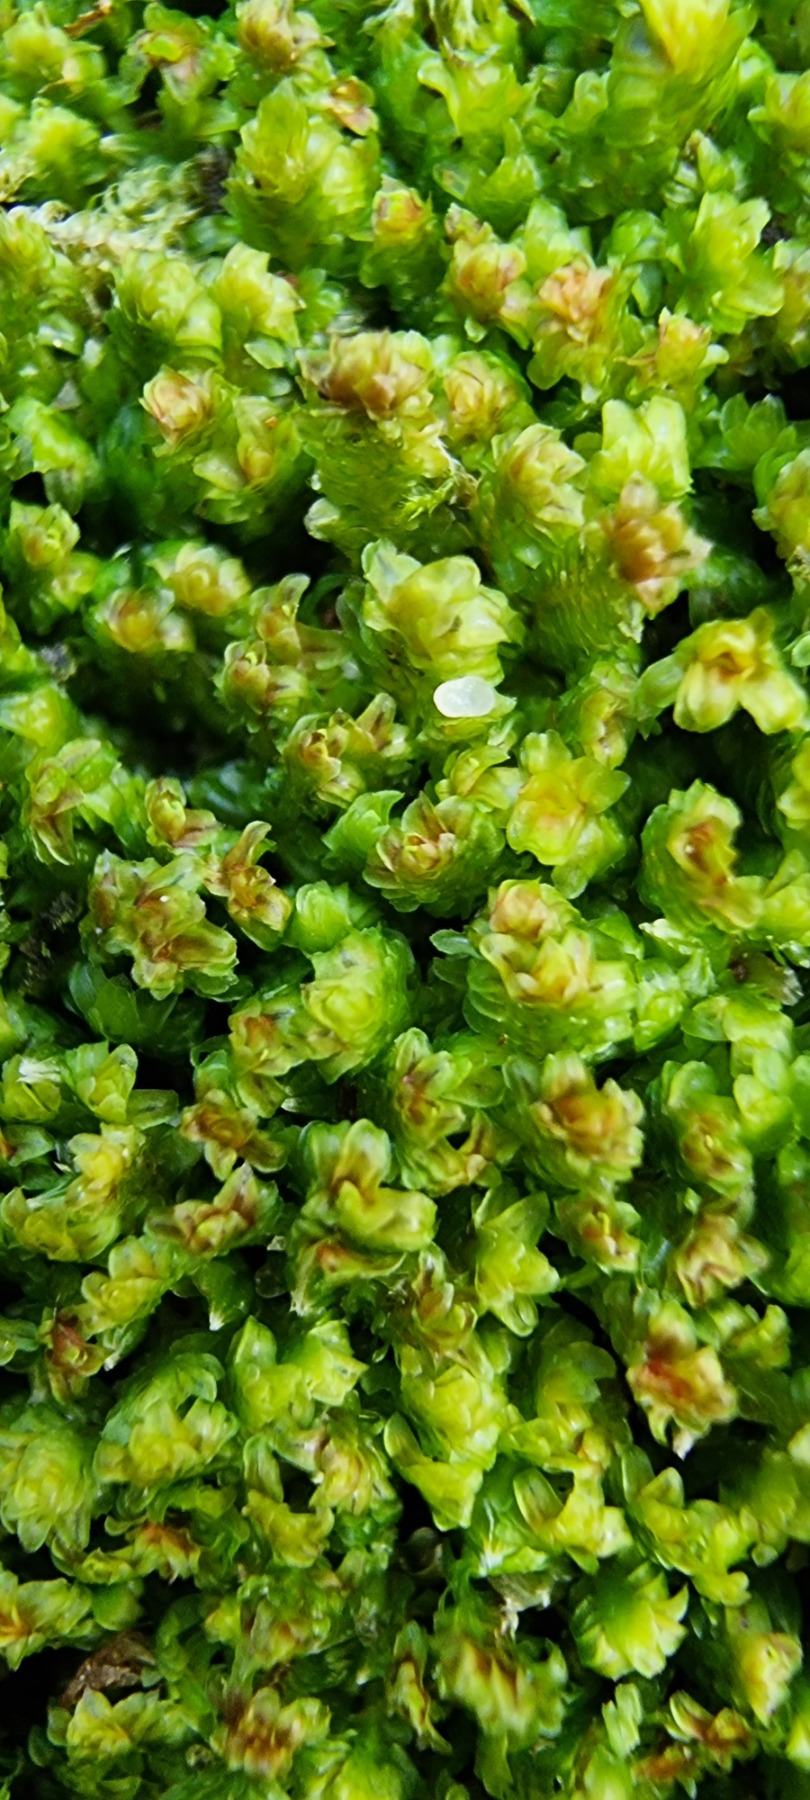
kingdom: Plantae
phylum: Marchantiophyta
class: Jungermanniopsida
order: Jungermanniales
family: Scapaniaceae
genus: Diplophyllum
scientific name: Diplophyllum albicans
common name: Stribet dobbeltblad
